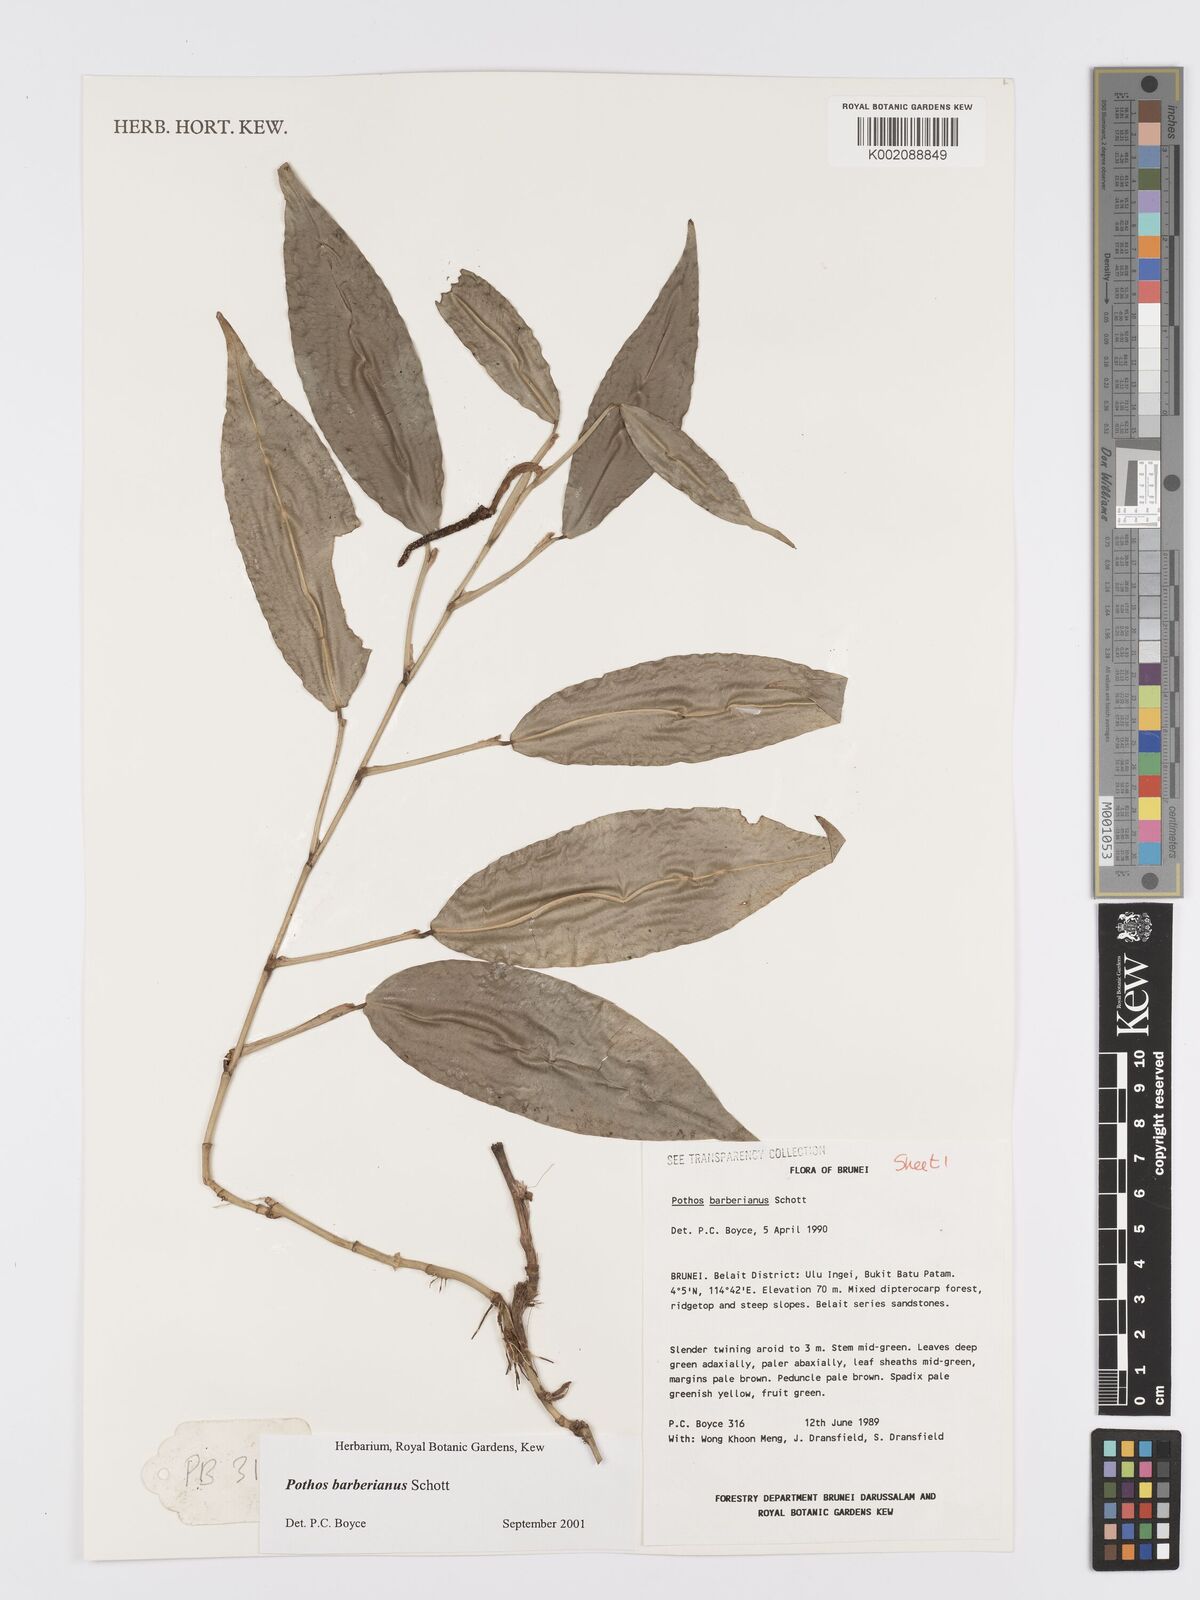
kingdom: Plantae
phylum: Tracheophyta
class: Liliopsida
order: Alismatales
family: Araceae
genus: Pothos
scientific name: Pothos barberianus
